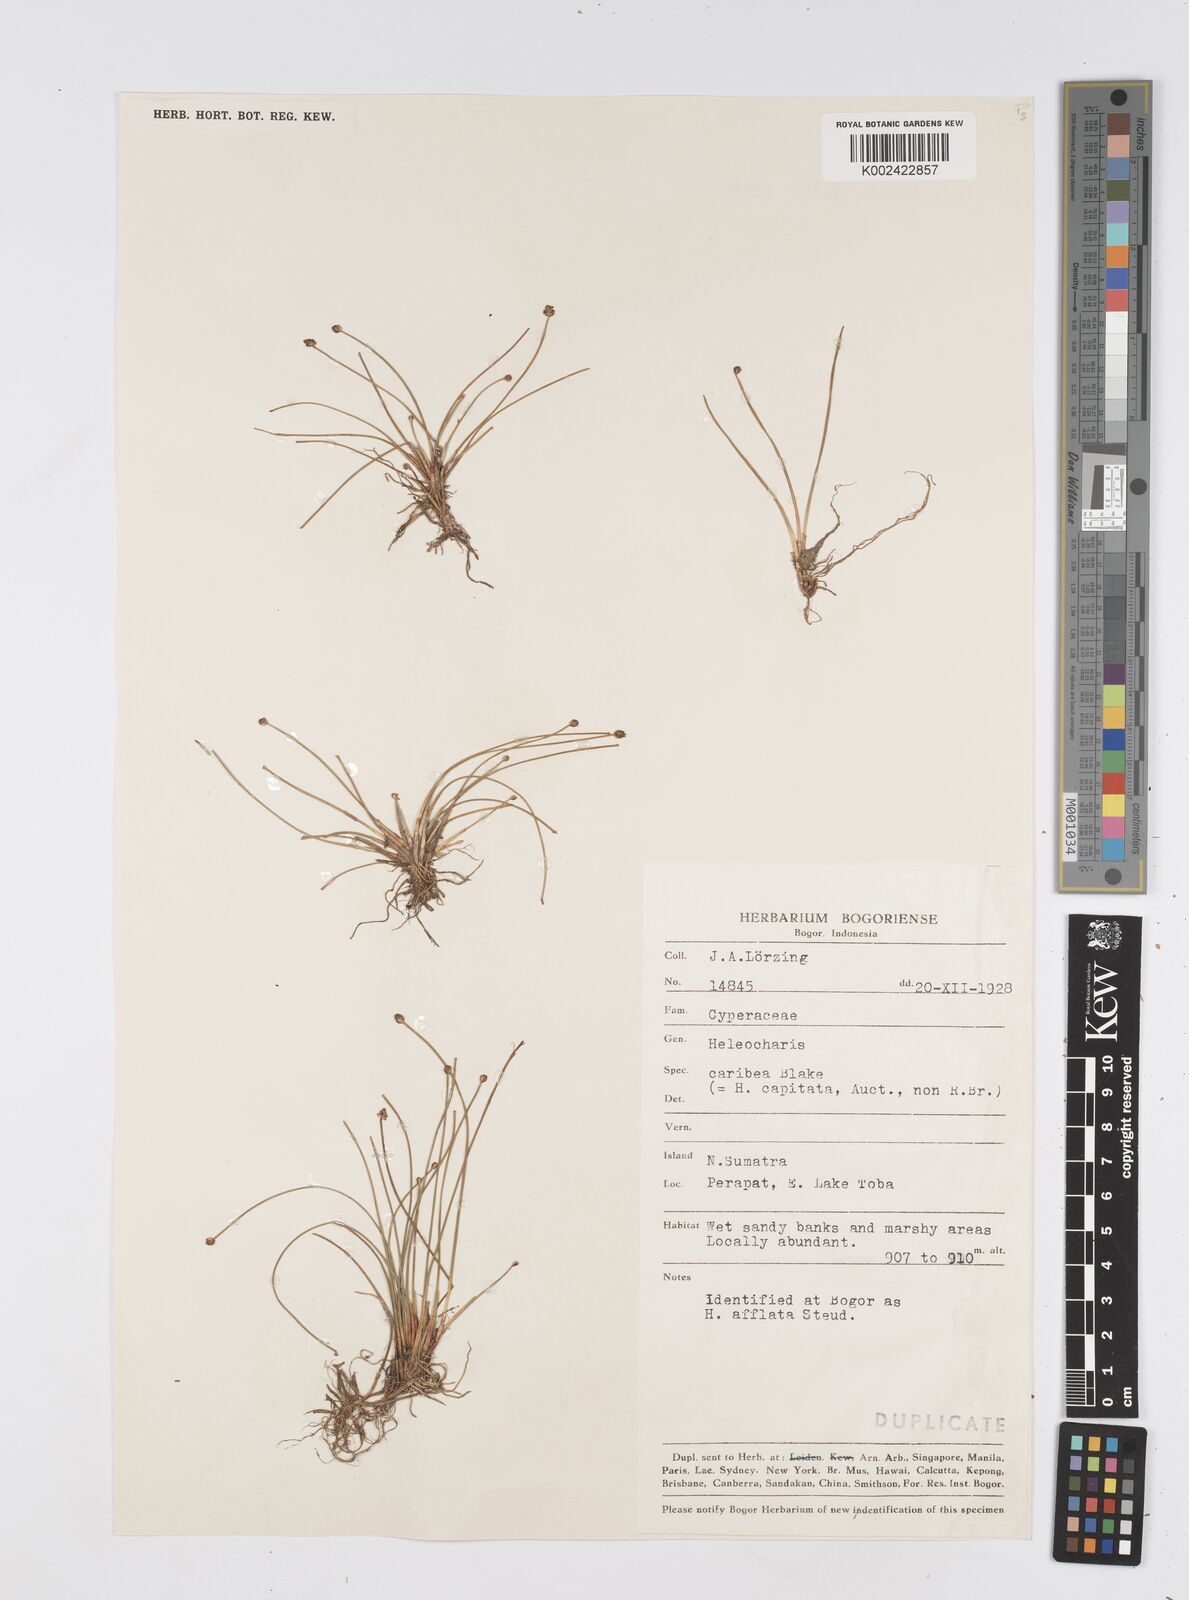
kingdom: Plantae
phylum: Tracheophyta
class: Liliopsida
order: Poales
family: Cyperaceae
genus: Eleocharis
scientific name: Eleocharis geniculata
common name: Canada spikesedge
